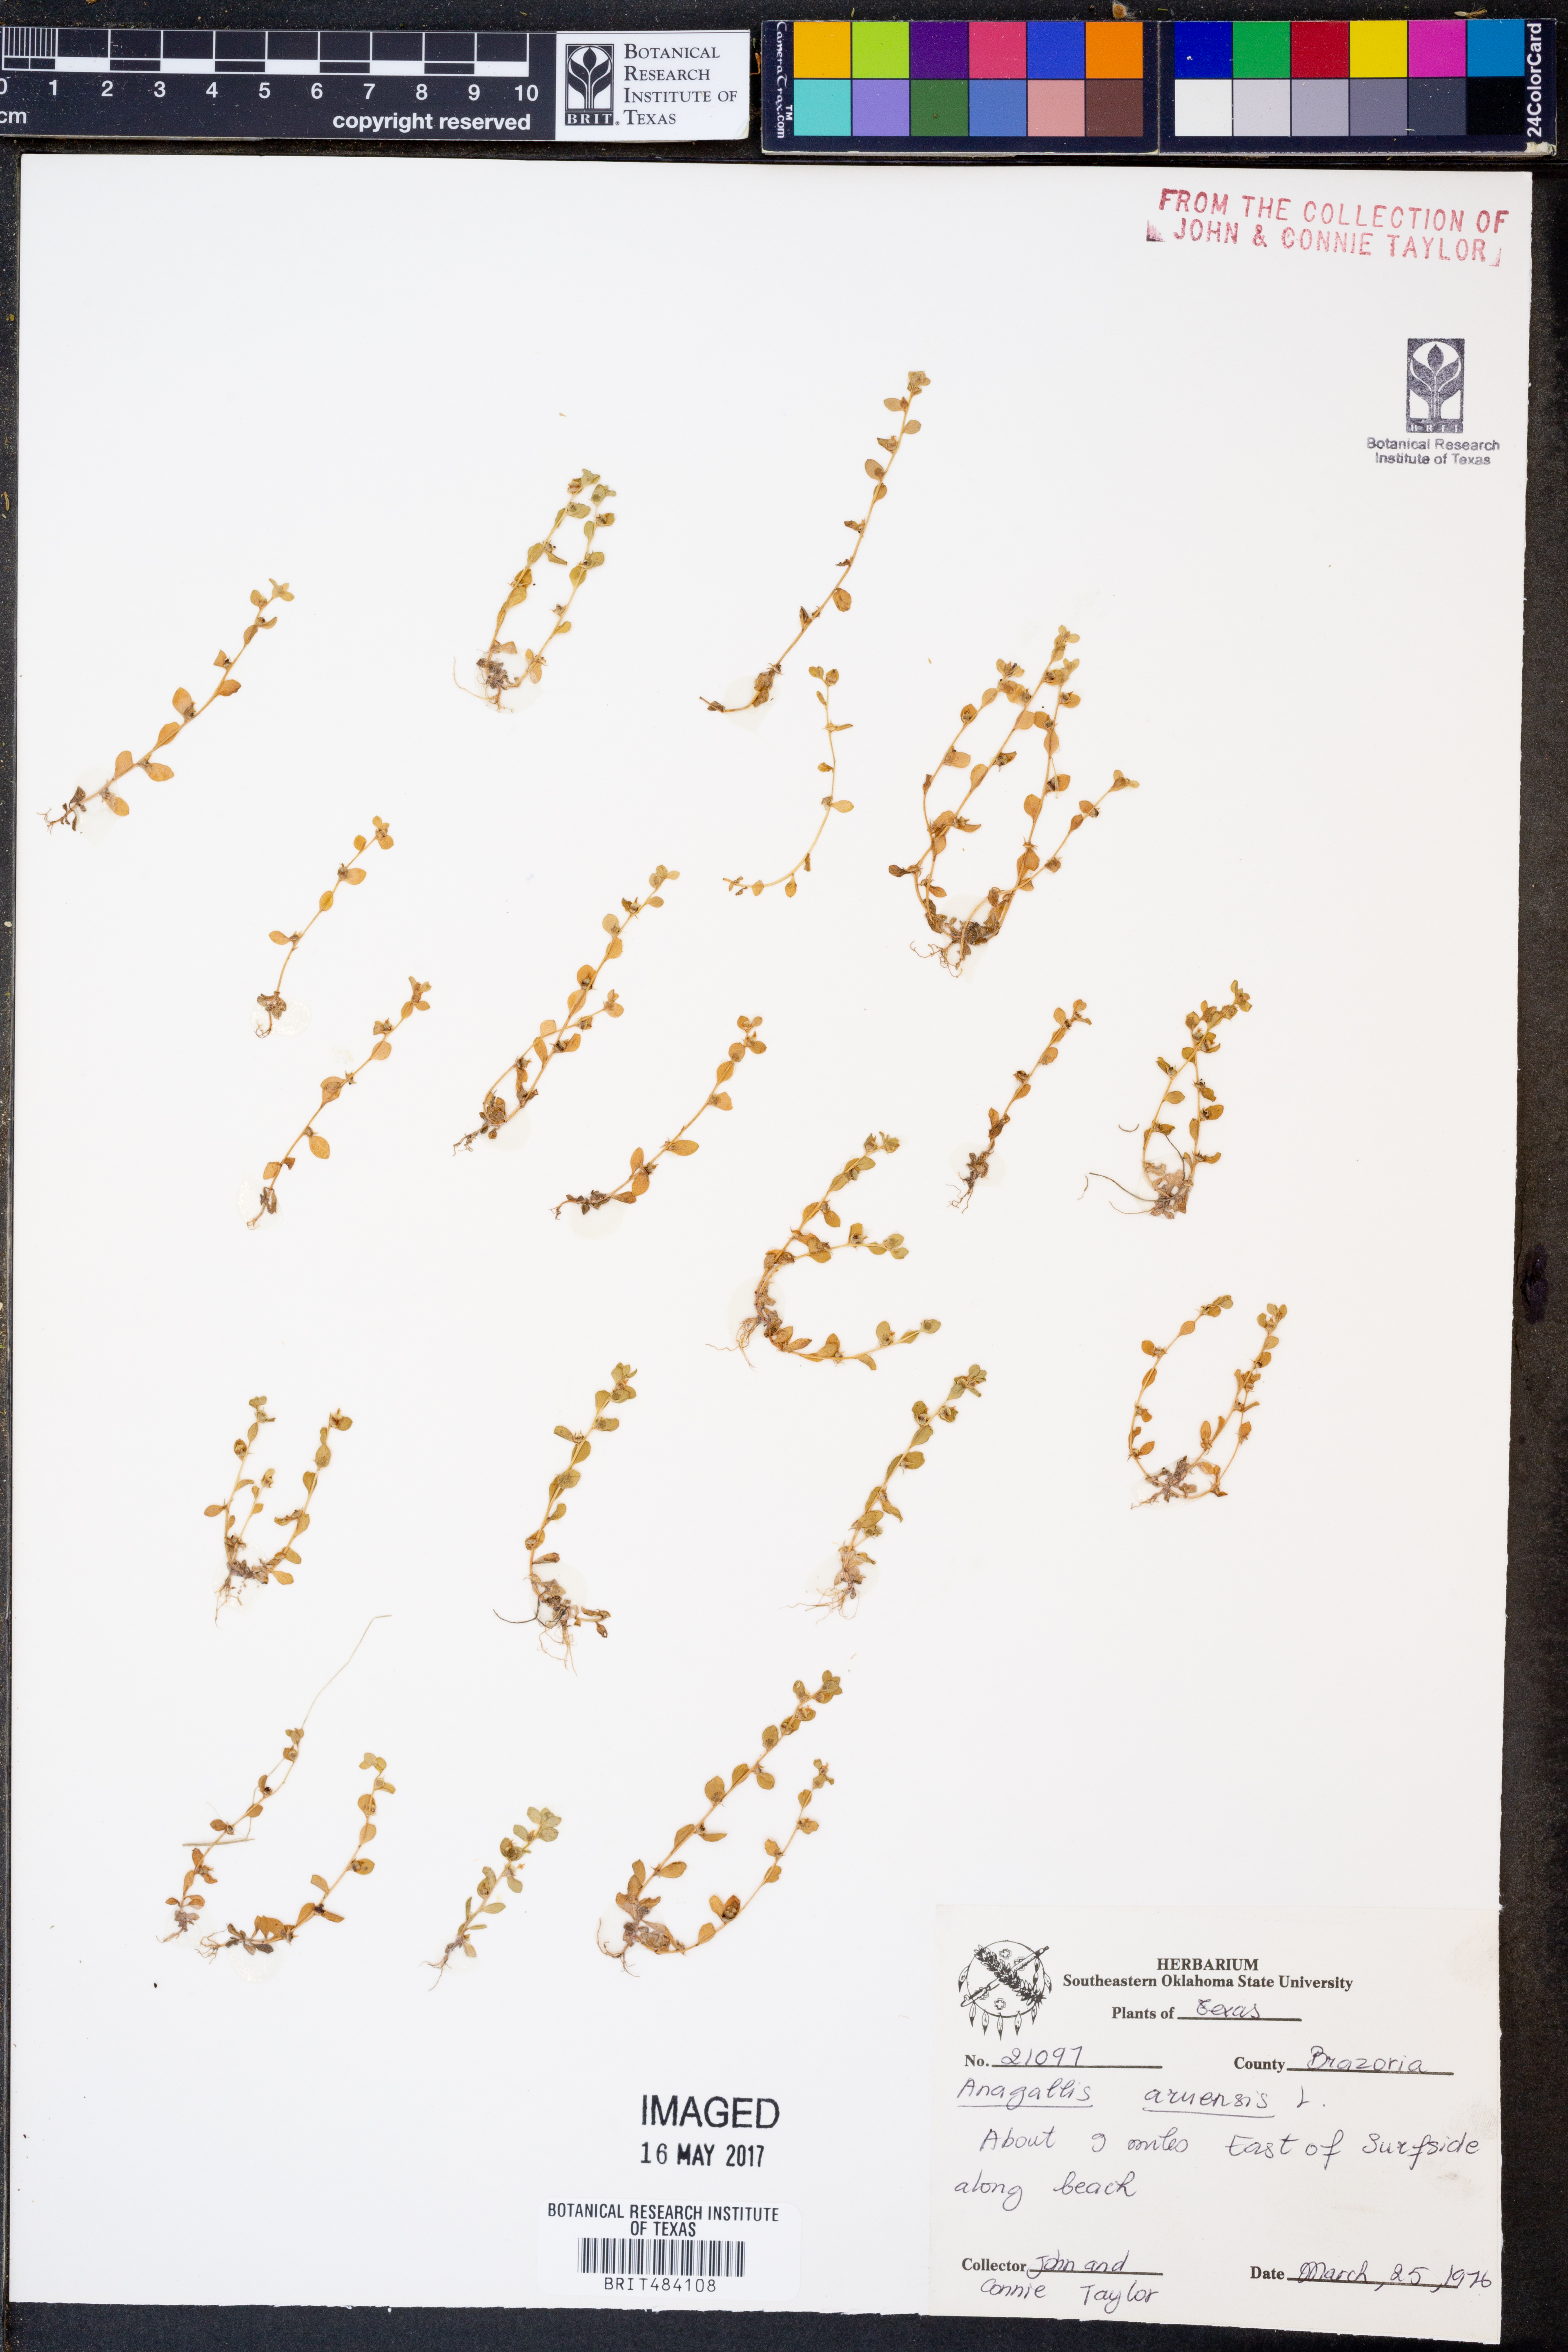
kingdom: Plantae
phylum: Tracheophyta
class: Magnoliopsida
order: Ericales
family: Primulaceae
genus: Lysimachia
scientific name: Lysimachia arvensis
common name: Scarlet pimpernel
